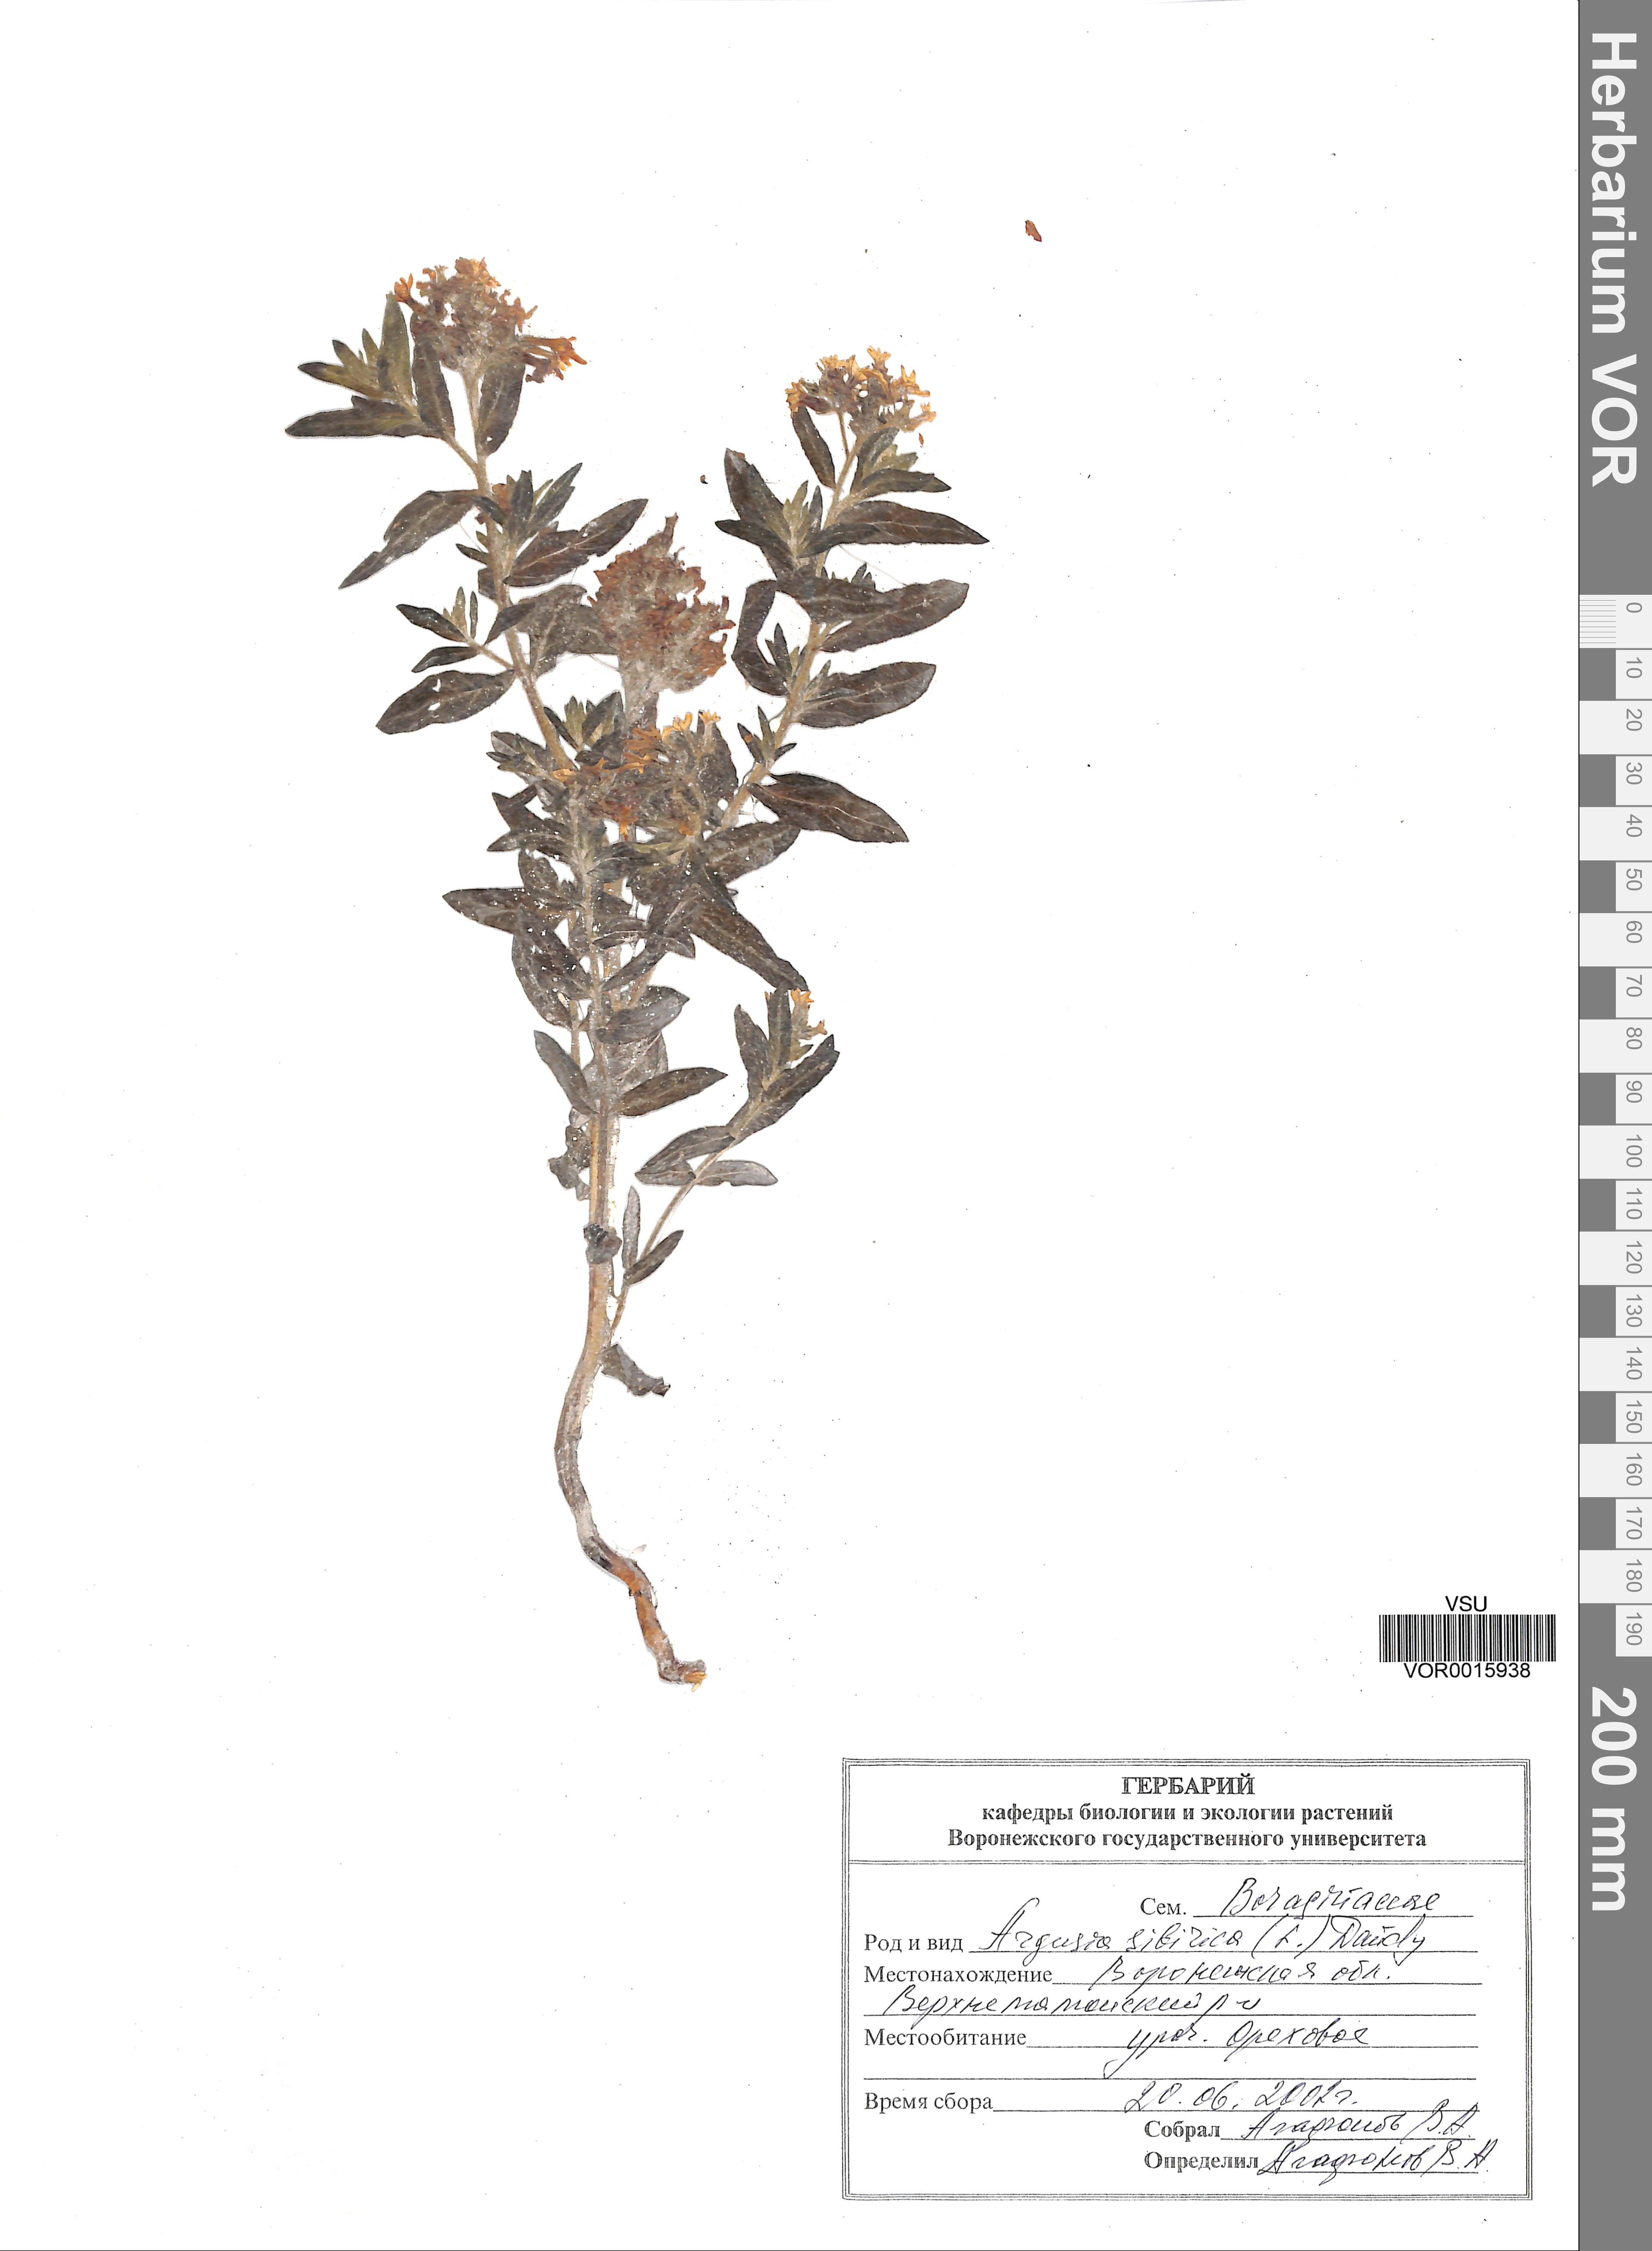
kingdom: Plantae
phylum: Tracheophyta
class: Magnoliopsida
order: Boraginales
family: Heliotropiaceae
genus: Tournefortia
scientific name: Tournefortia sibirica
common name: Siberian sea rosemary
